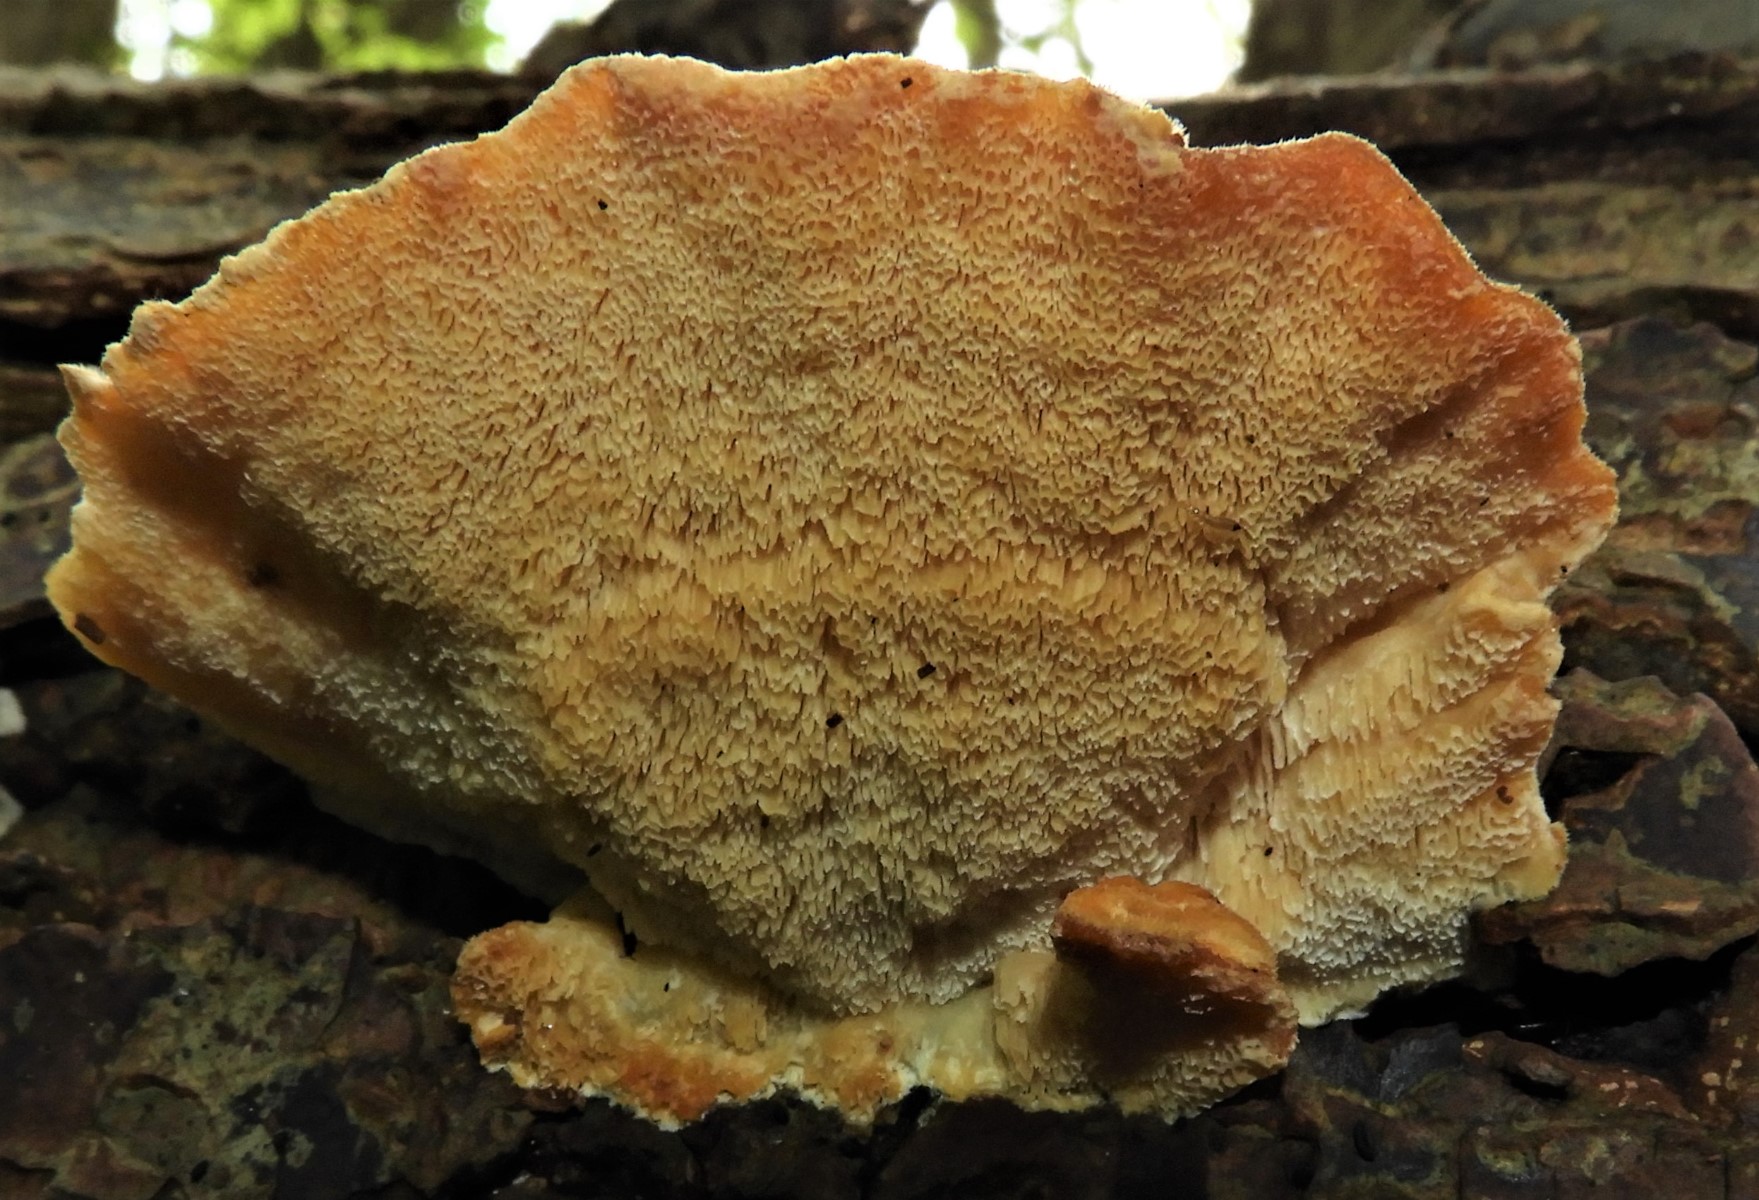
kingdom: Fungi
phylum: Basidiomycota
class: Agaricomycetes
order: Polyporales
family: Polyporaceae
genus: Trametes
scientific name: Trametes ochracea
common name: bæltet læderporesvamp
